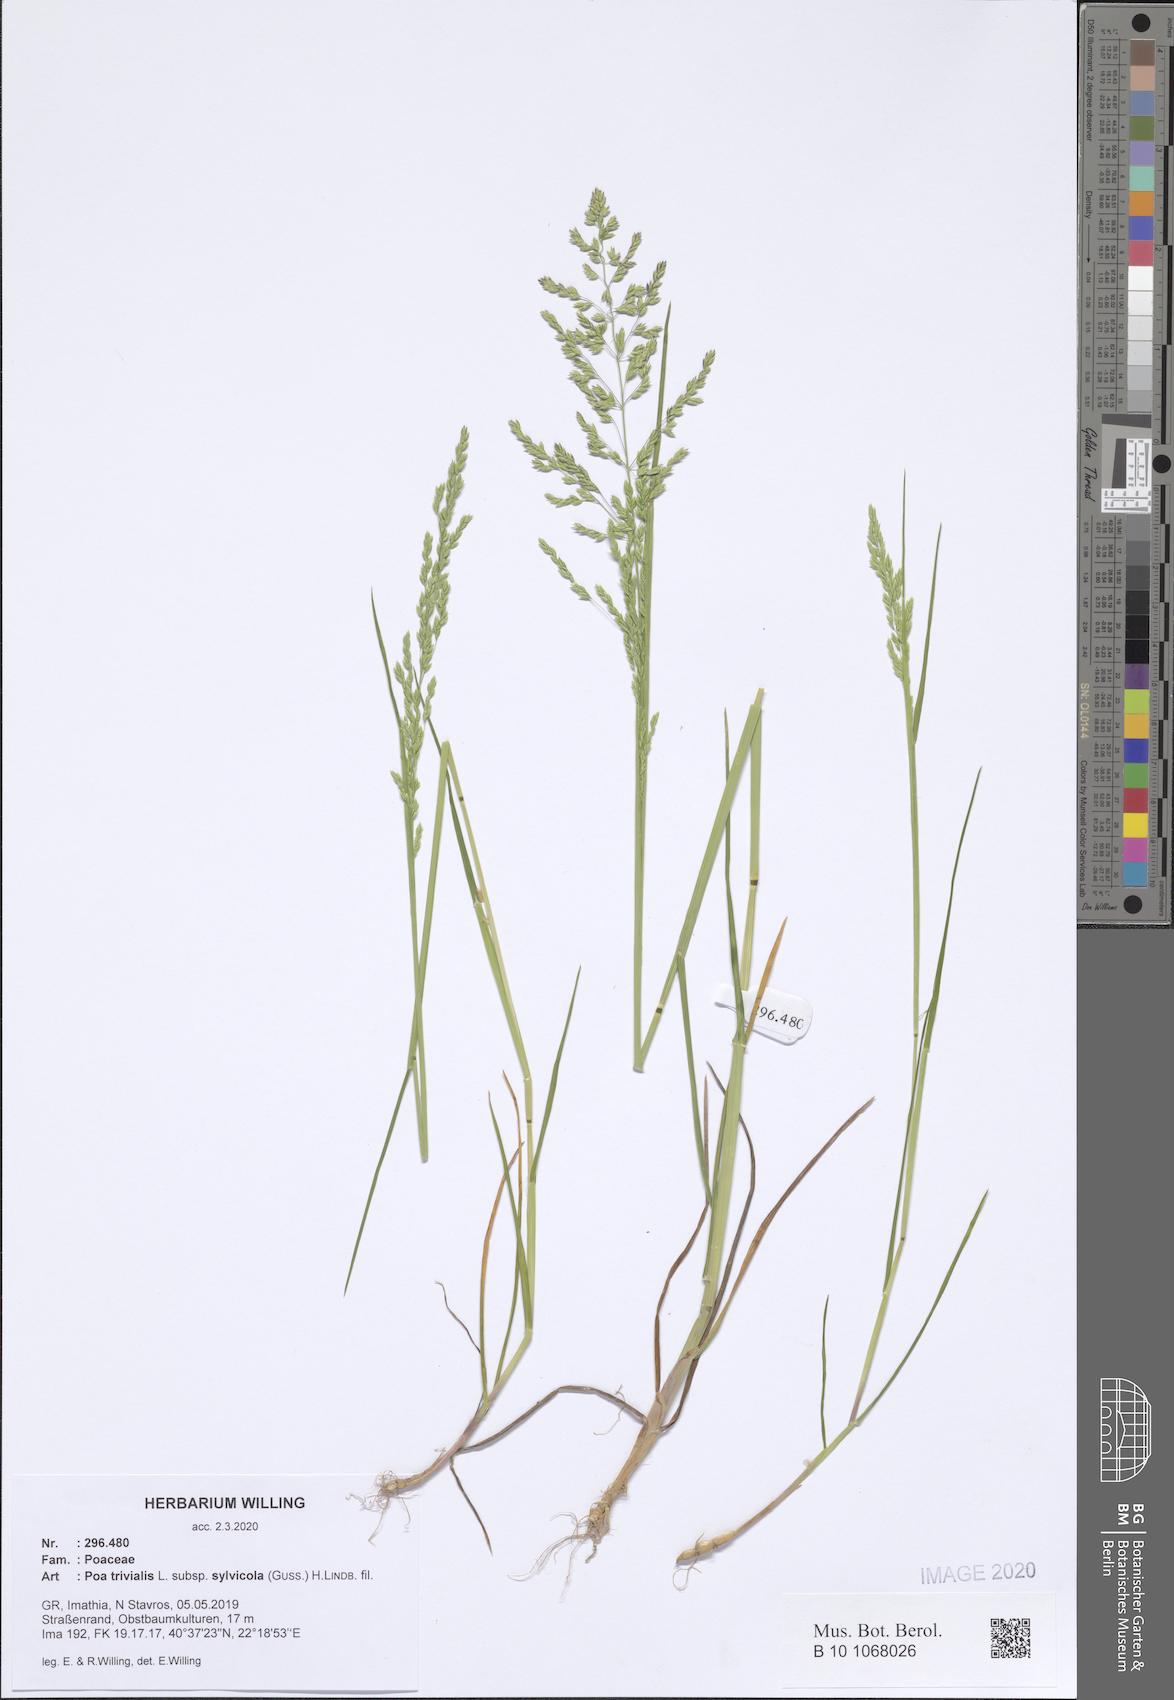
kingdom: Plantae
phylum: Tracheophyta
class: Liliopsida
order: Poales
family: Poaceae
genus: Poa
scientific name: Poa trivialis
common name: Rough bluegrass
